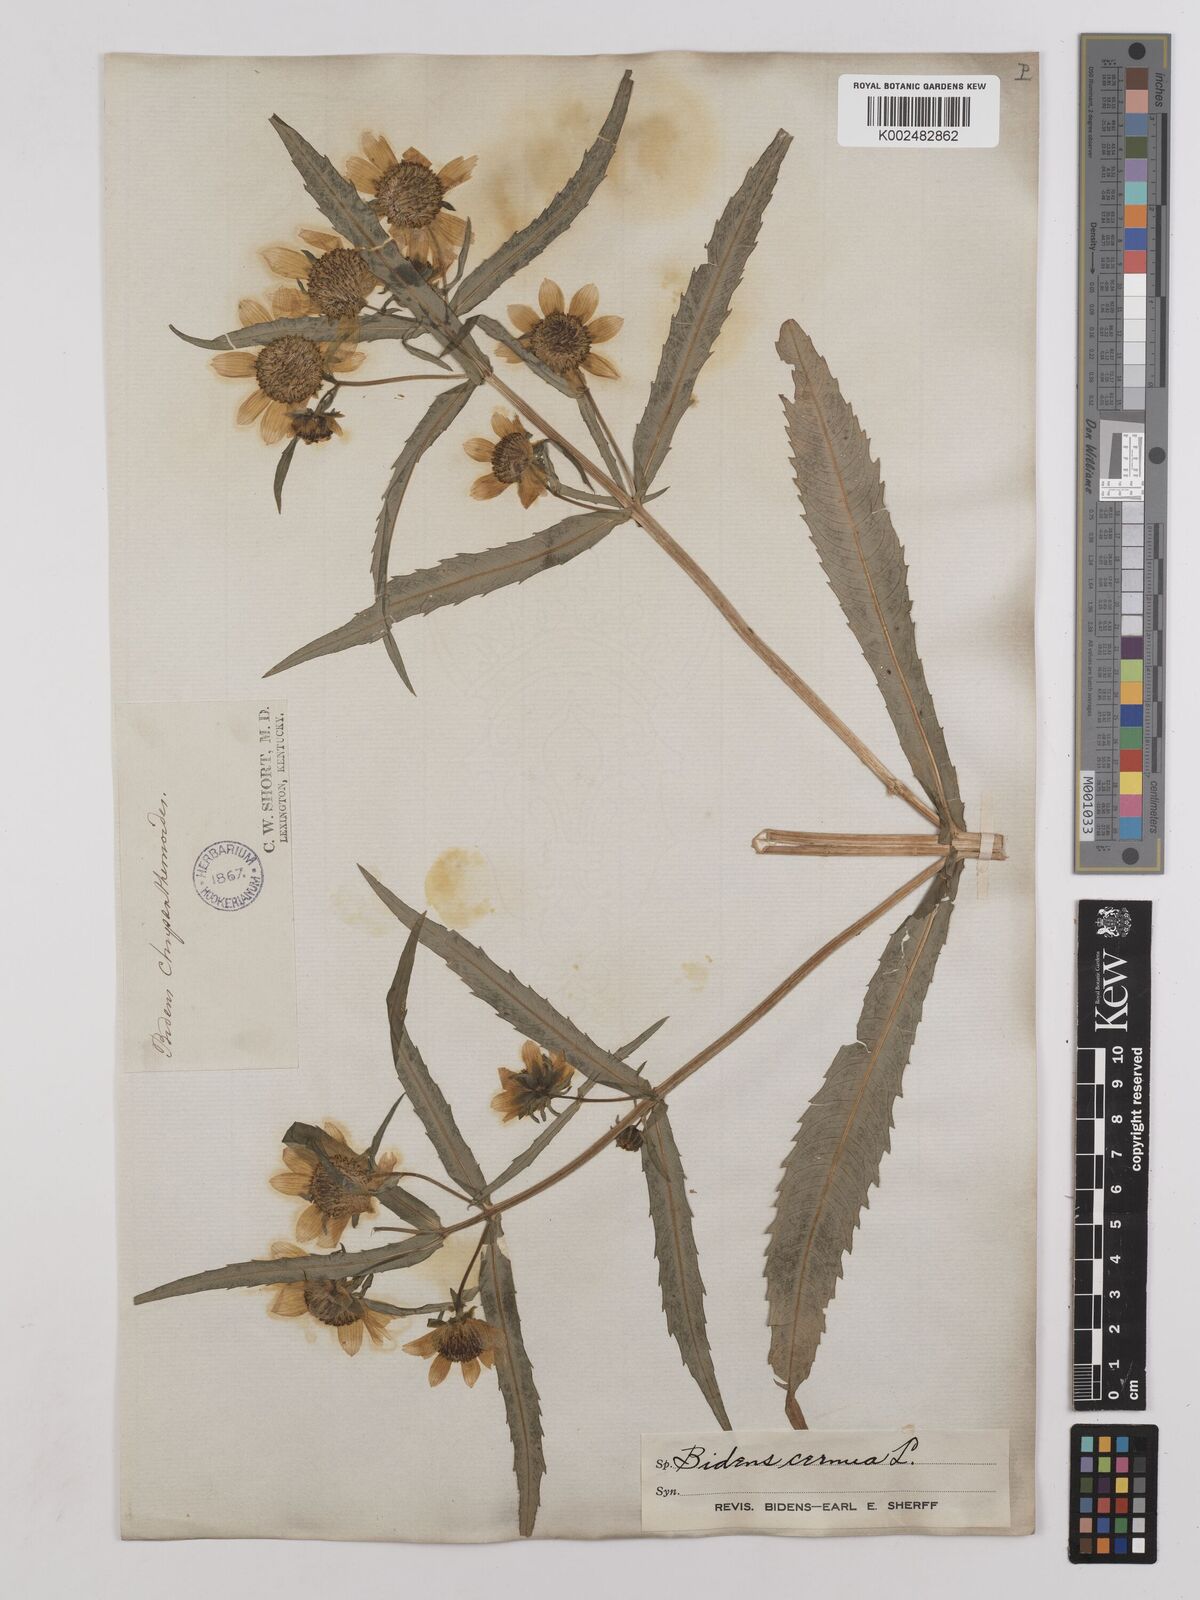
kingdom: Plantae
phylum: Tracheophyta
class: Magnoliopsida
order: Asterales
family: Asteraceae
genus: Bidens
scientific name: Bidens
